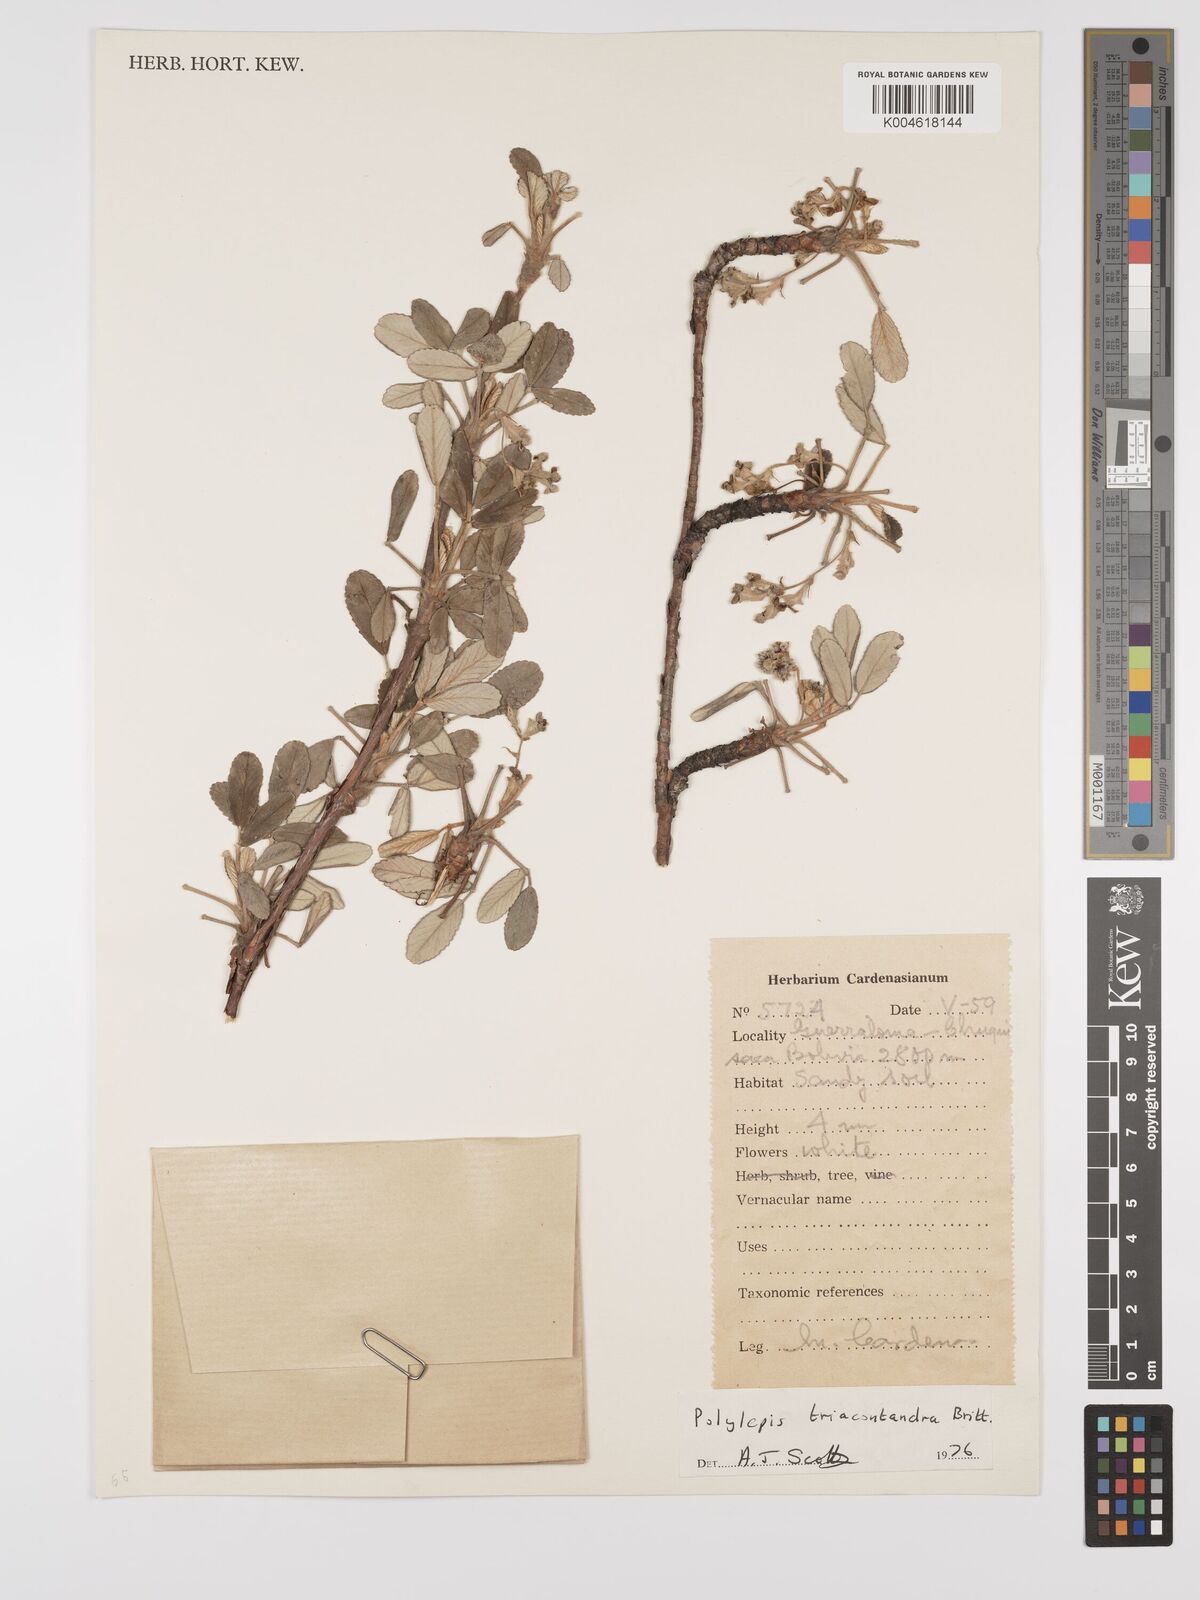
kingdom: Plantae
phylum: Tracheophyta
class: Magnoliopsida
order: Rosales
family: Rosaceae
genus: Polylepis
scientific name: Polylepis
